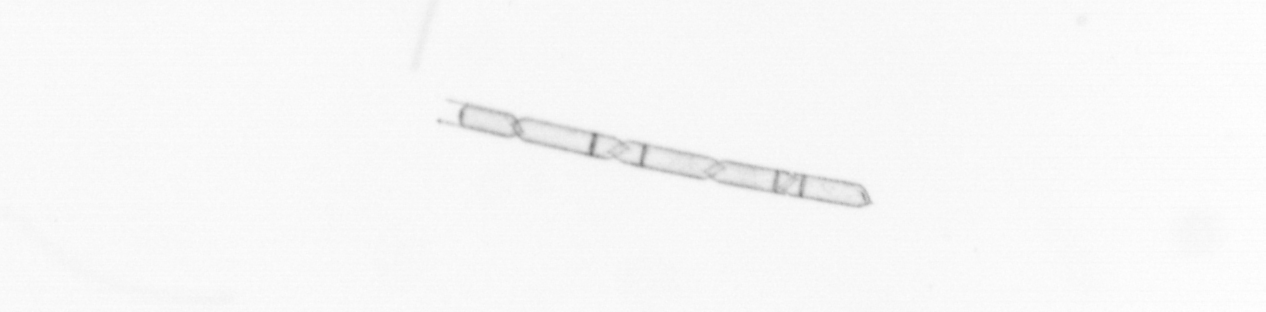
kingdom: Chromista
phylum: Ochrophyta
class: Bacillariophyceae
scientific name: Bacillariophyceae
